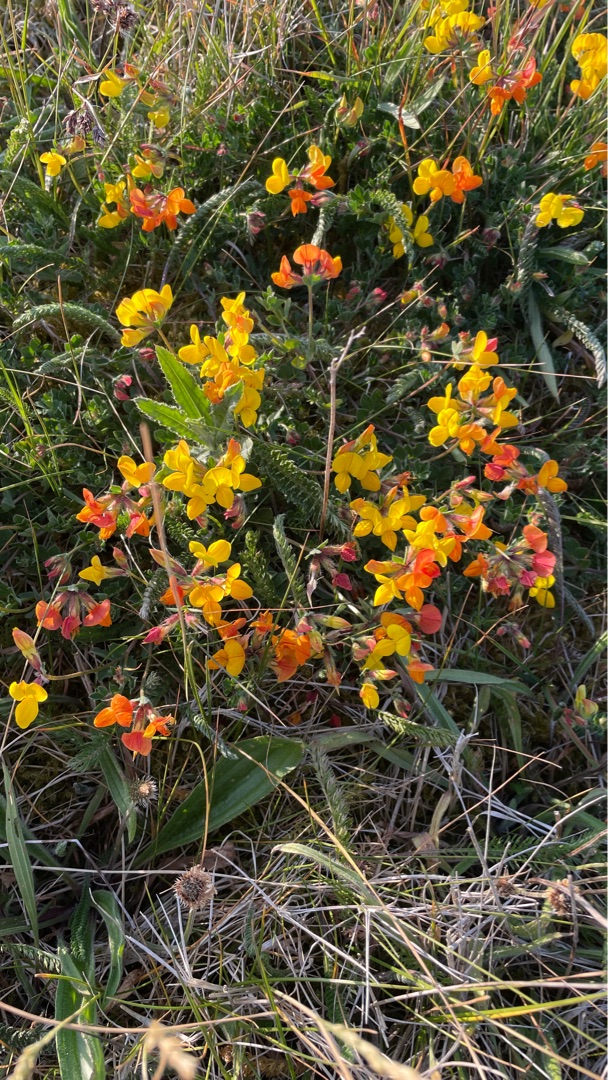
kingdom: Plantae
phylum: Tracheophyta
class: Magnoliopsida
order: Fabales
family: Fabaceae
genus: Lotus
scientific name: Lotus corniculatus
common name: Almindelig kællingetand
